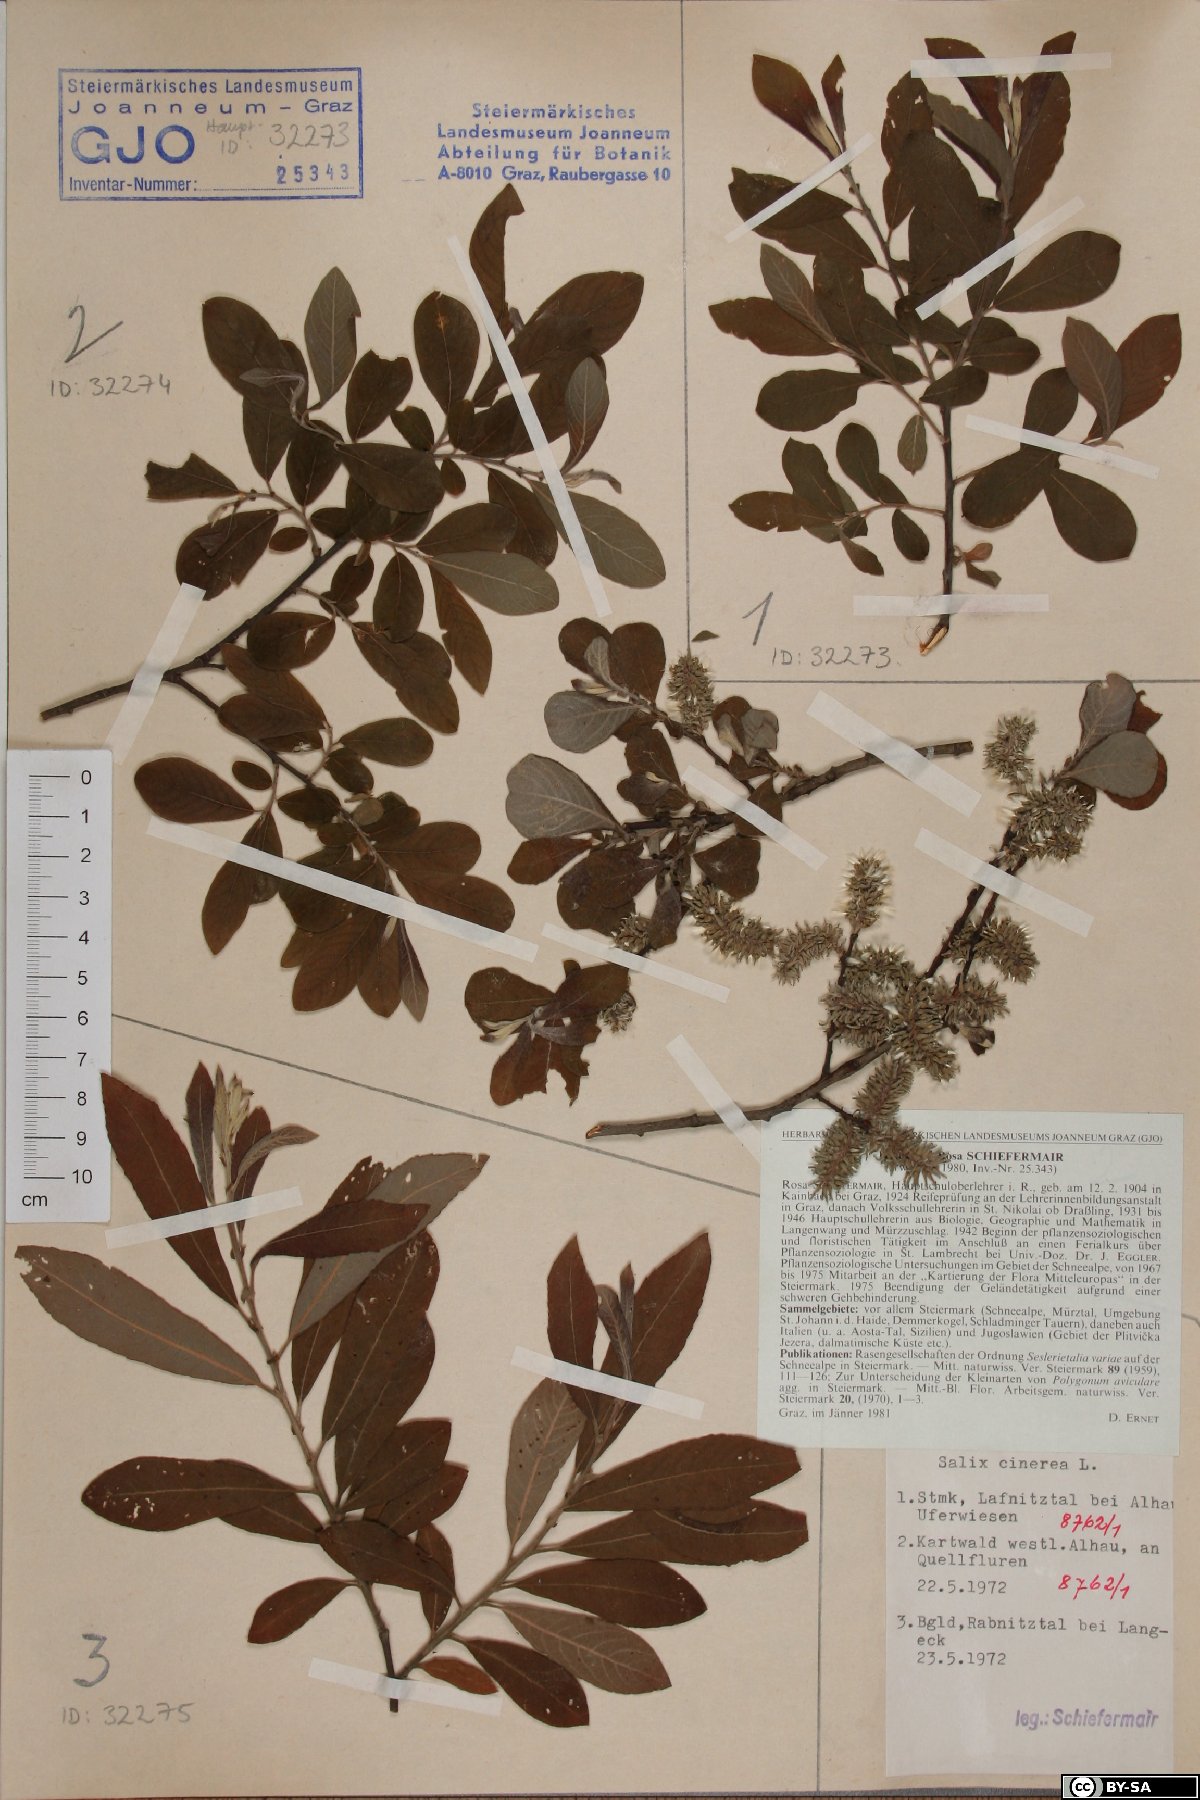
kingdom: Plantae
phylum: Tracheophyta
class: Magnoliopsida
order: Malpighiales
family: Salicaceae
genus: Salix
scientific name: Salix cinerea
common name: Common sallow
